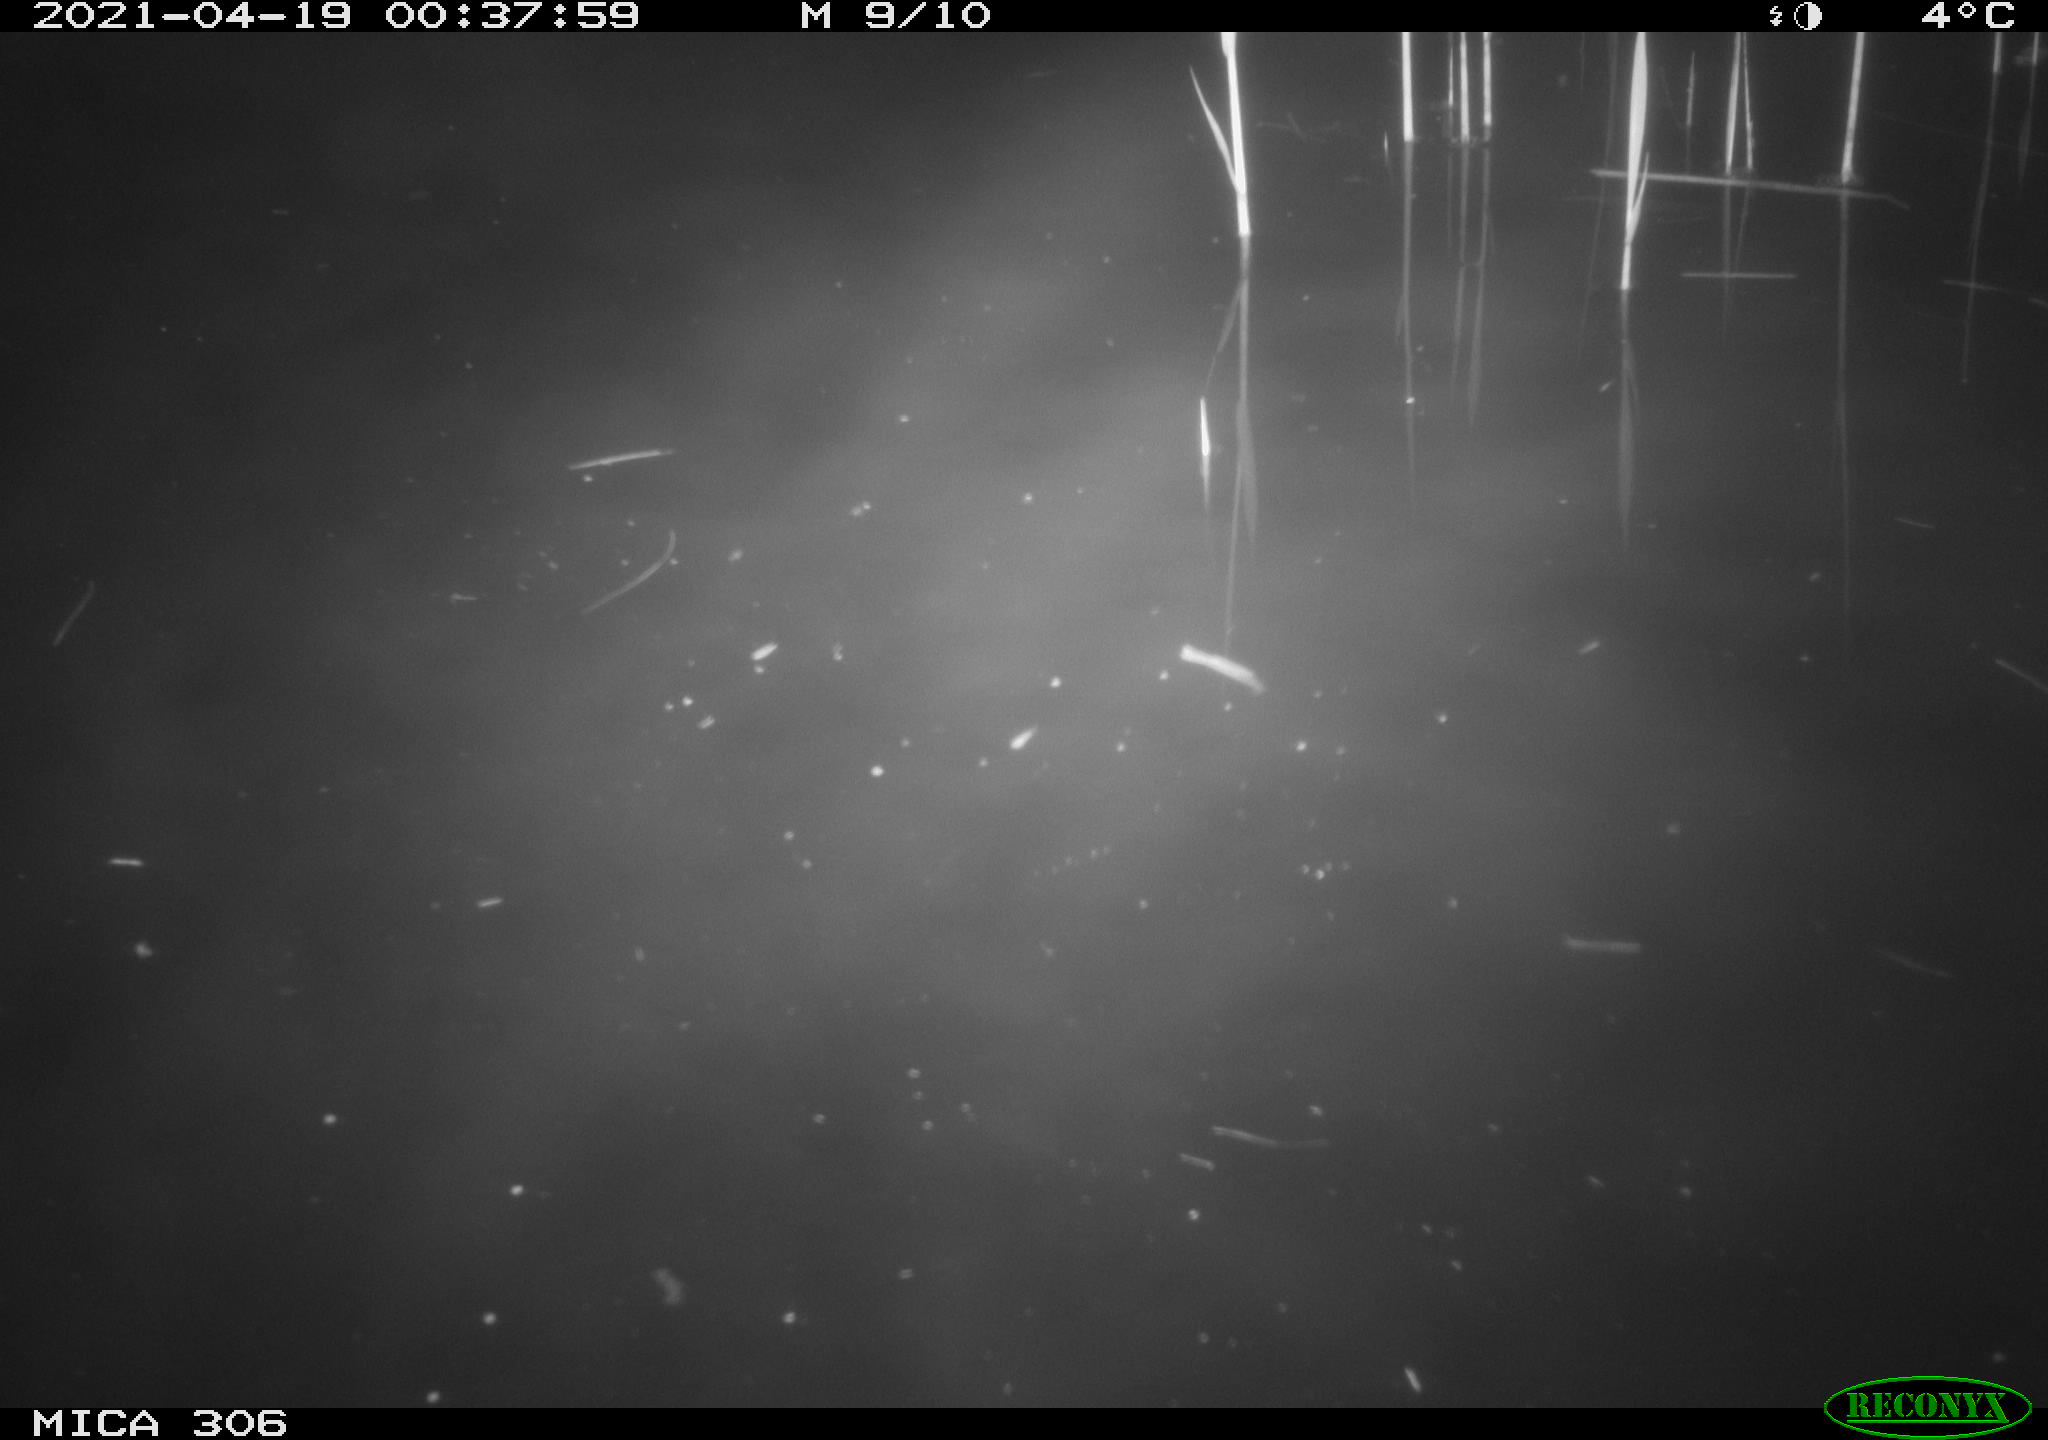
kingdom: Animalia
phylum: Chordata
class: Aves
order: Anseriformes
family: Anatidae
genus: Anas
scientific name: Anas platyrhynchos
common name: Mallard
